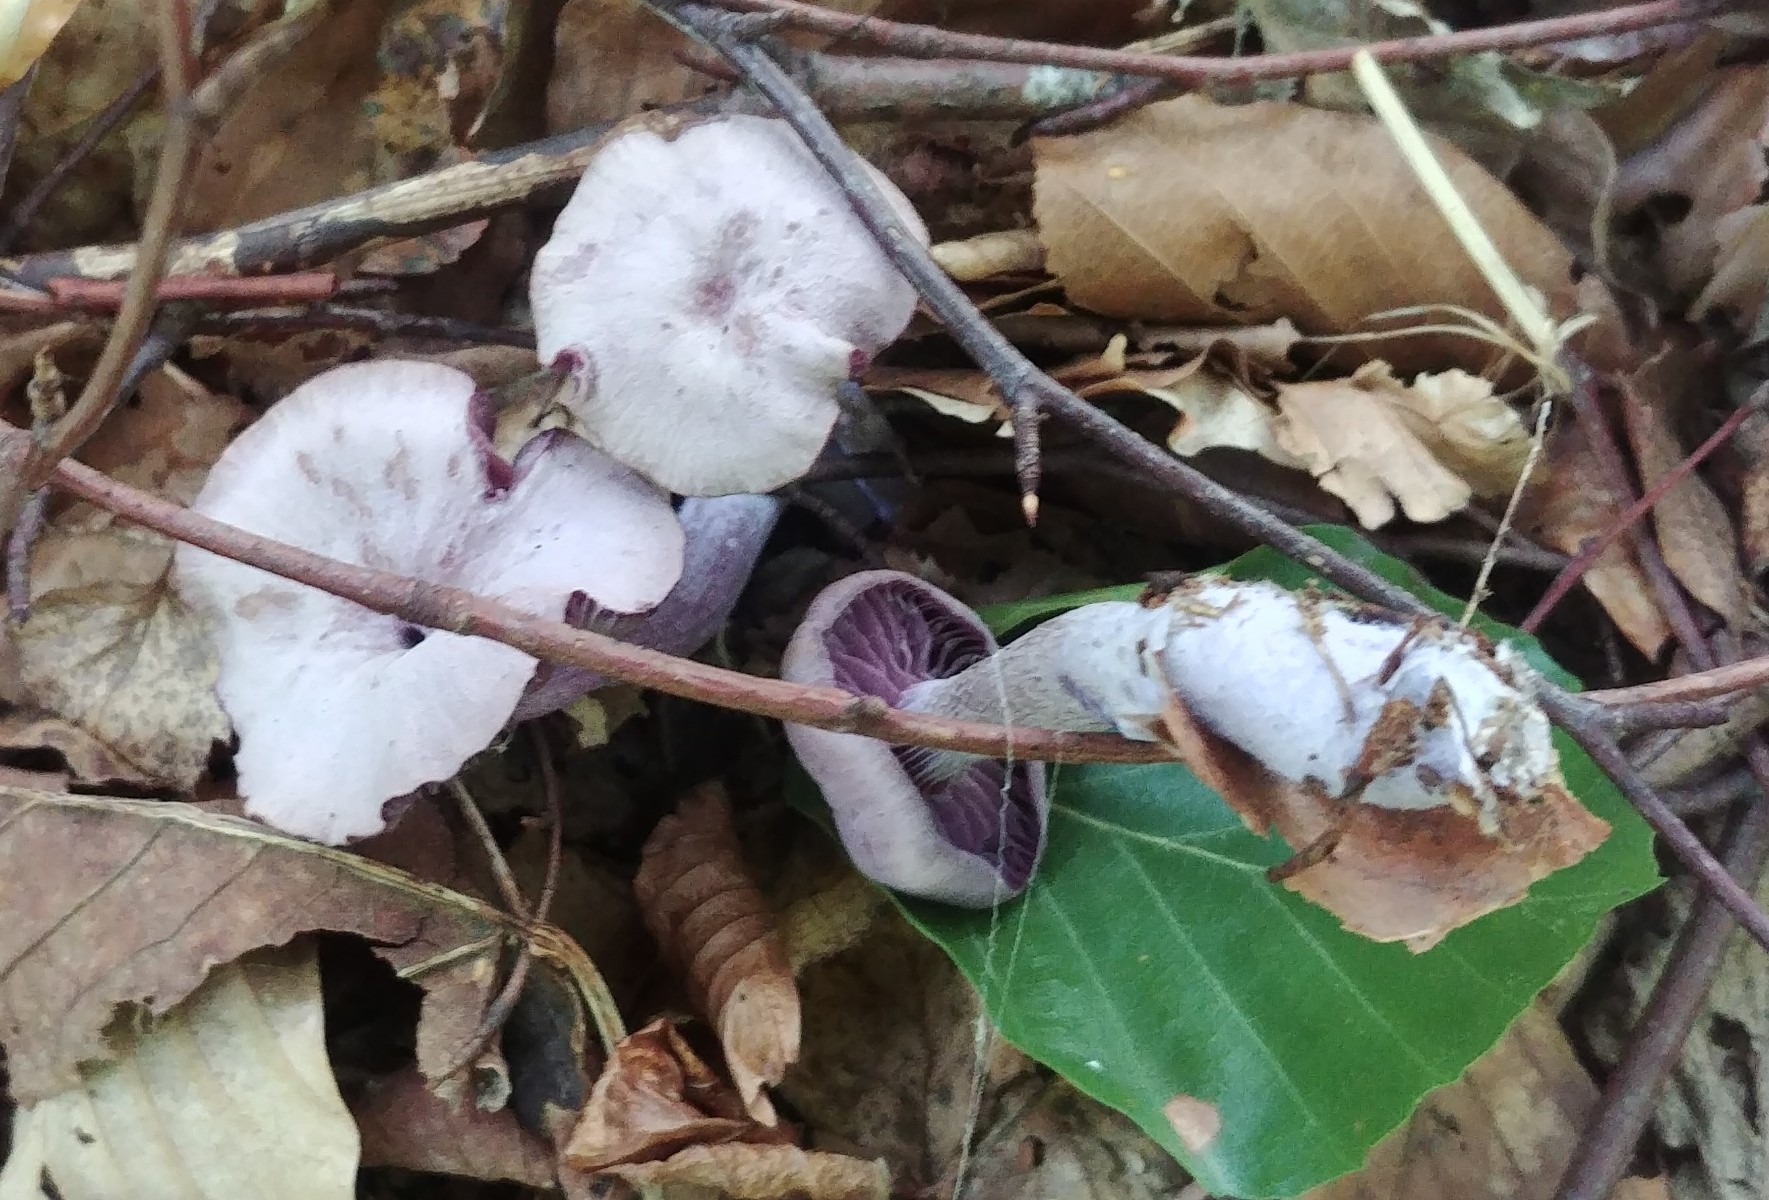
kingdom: Fungi
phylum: Basidiomycota
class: Agaricomycetes
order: Agaricales
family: Hydnangiaceae
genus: Laccaria
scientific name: Laccaria amethystina
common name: violet ametysthat
